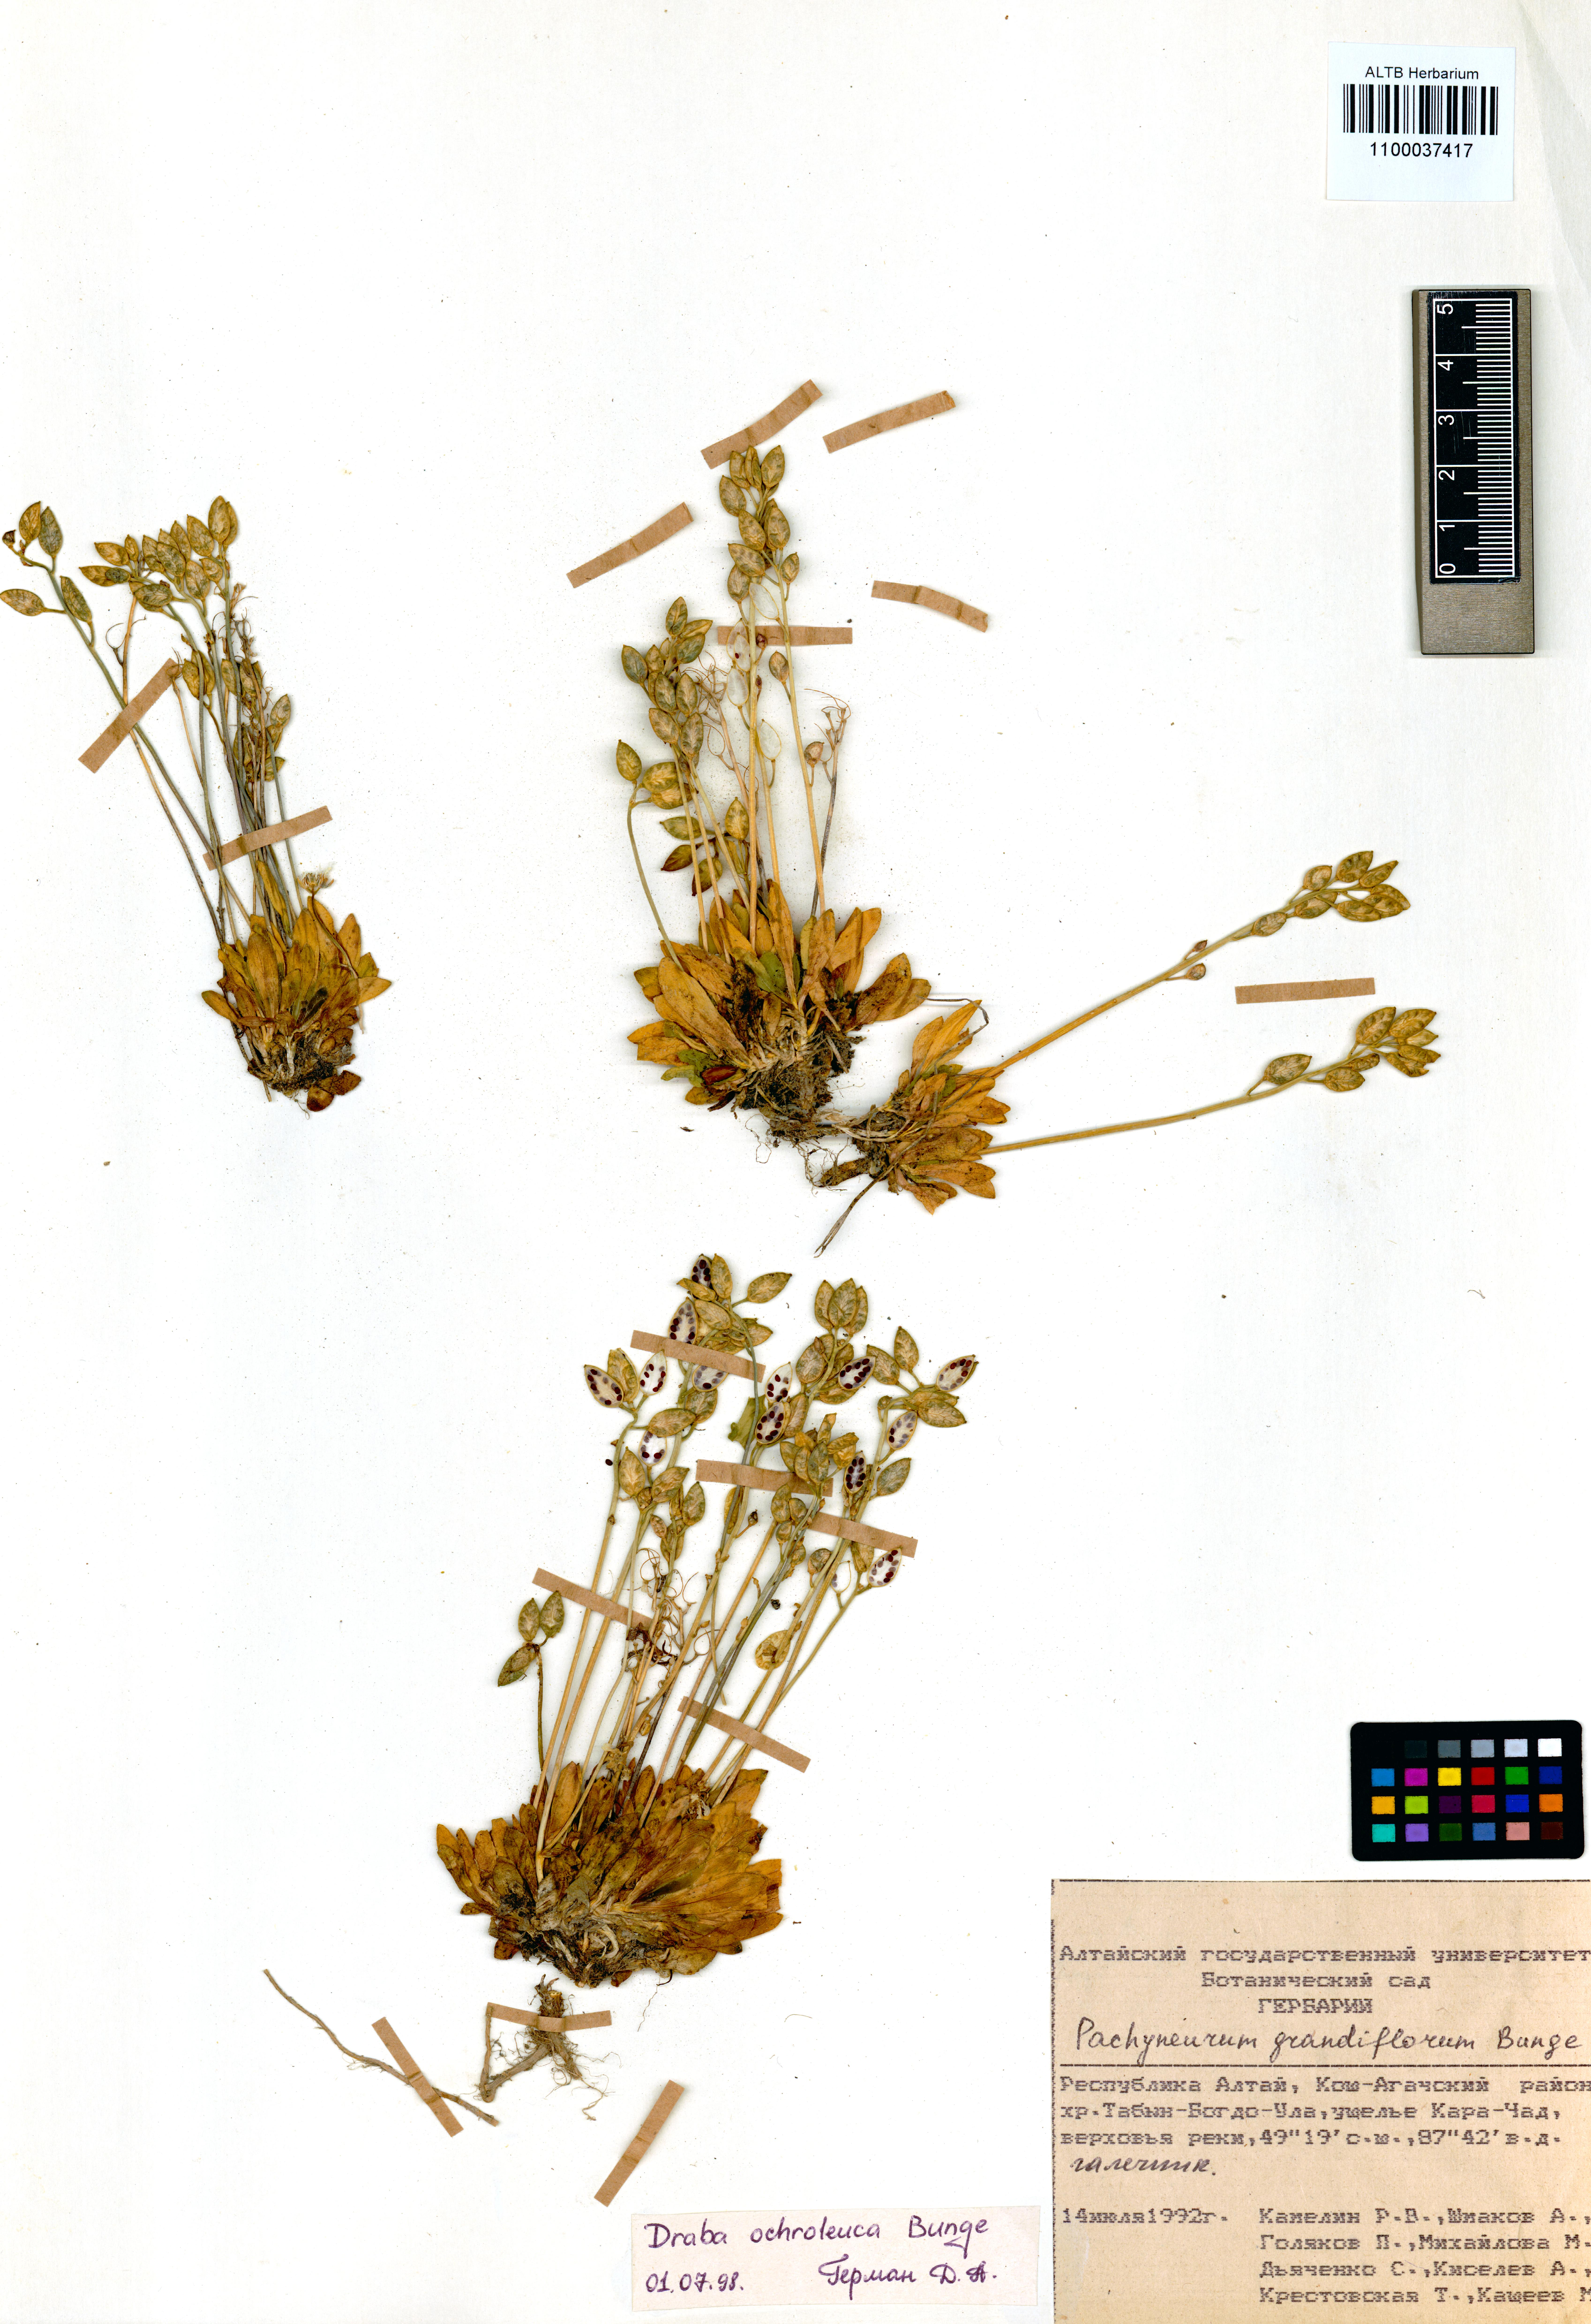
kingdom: Plantae
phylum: Tracheophyta
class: Magnoliopsida
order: Brassicales
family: Brassicaceae
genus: Draba
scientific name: Draba ochroleuca
